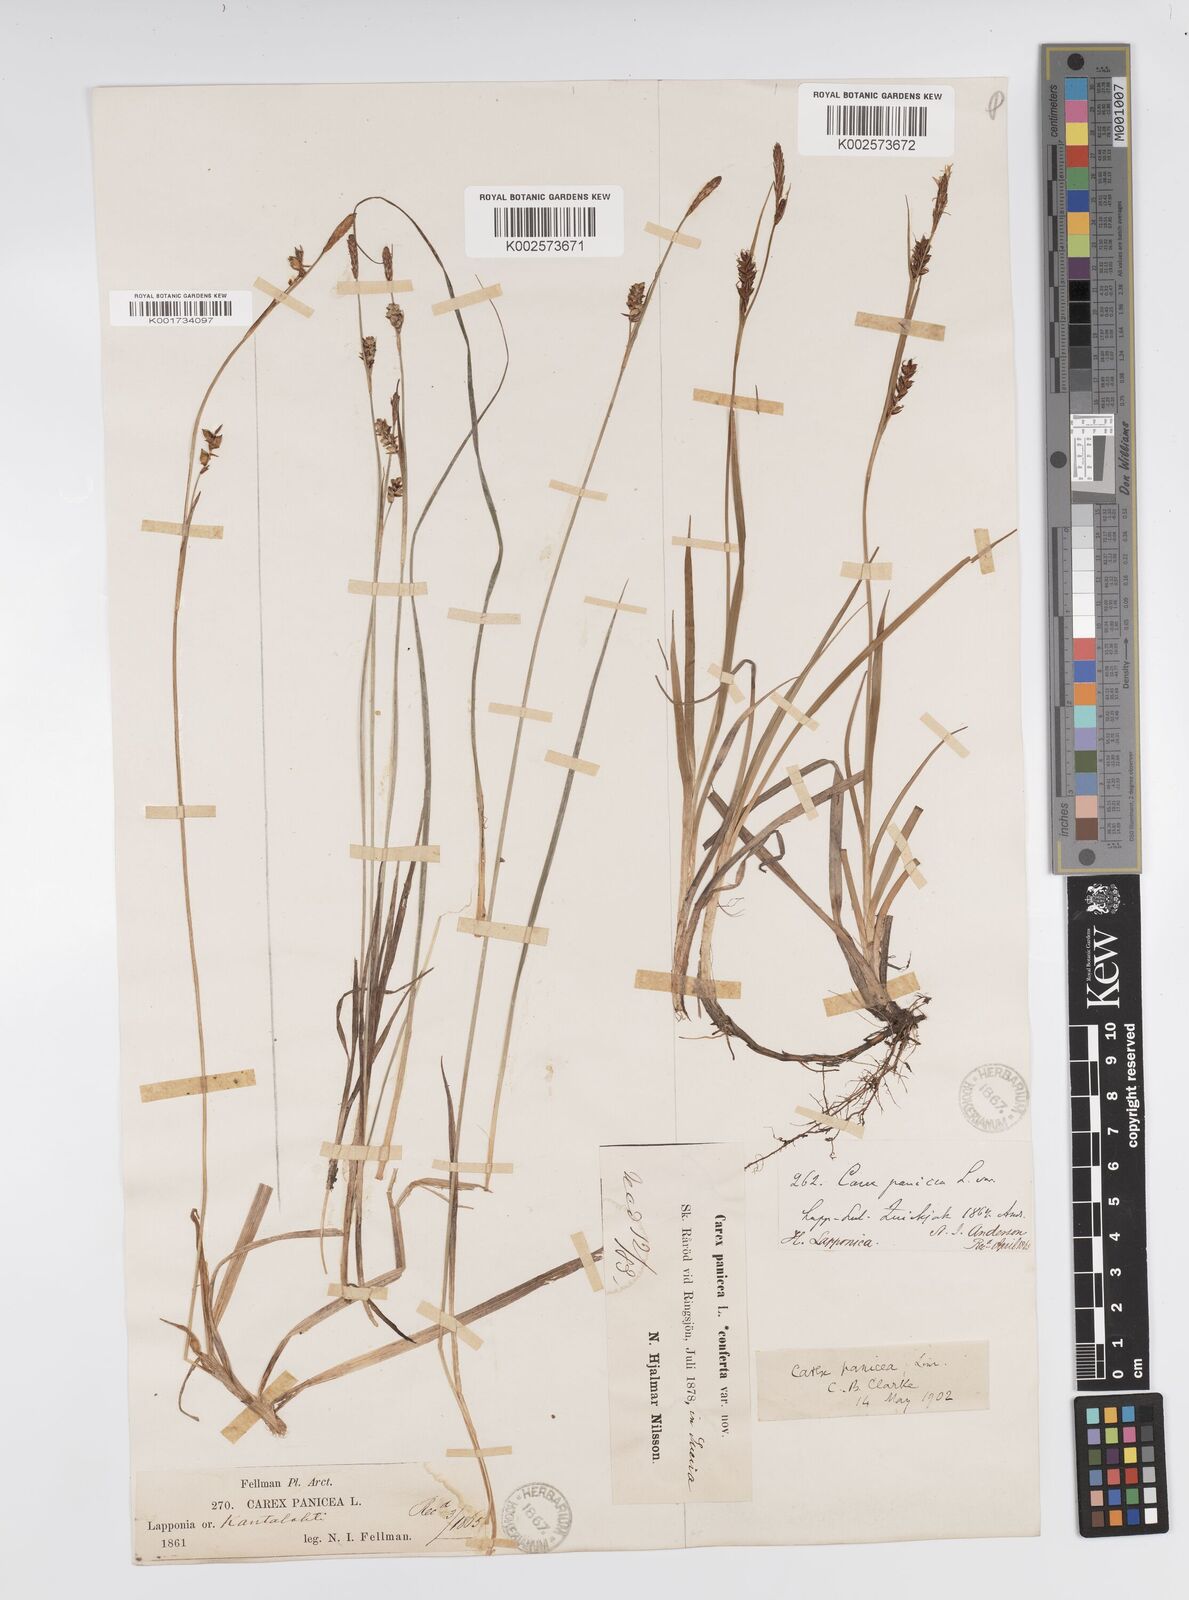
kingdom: Plantae
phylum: Tracheophyta
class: Liliopsida
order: Poales
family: Cyperaceae
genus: Carex
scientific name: Carex panicea
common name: Carnation sedge
